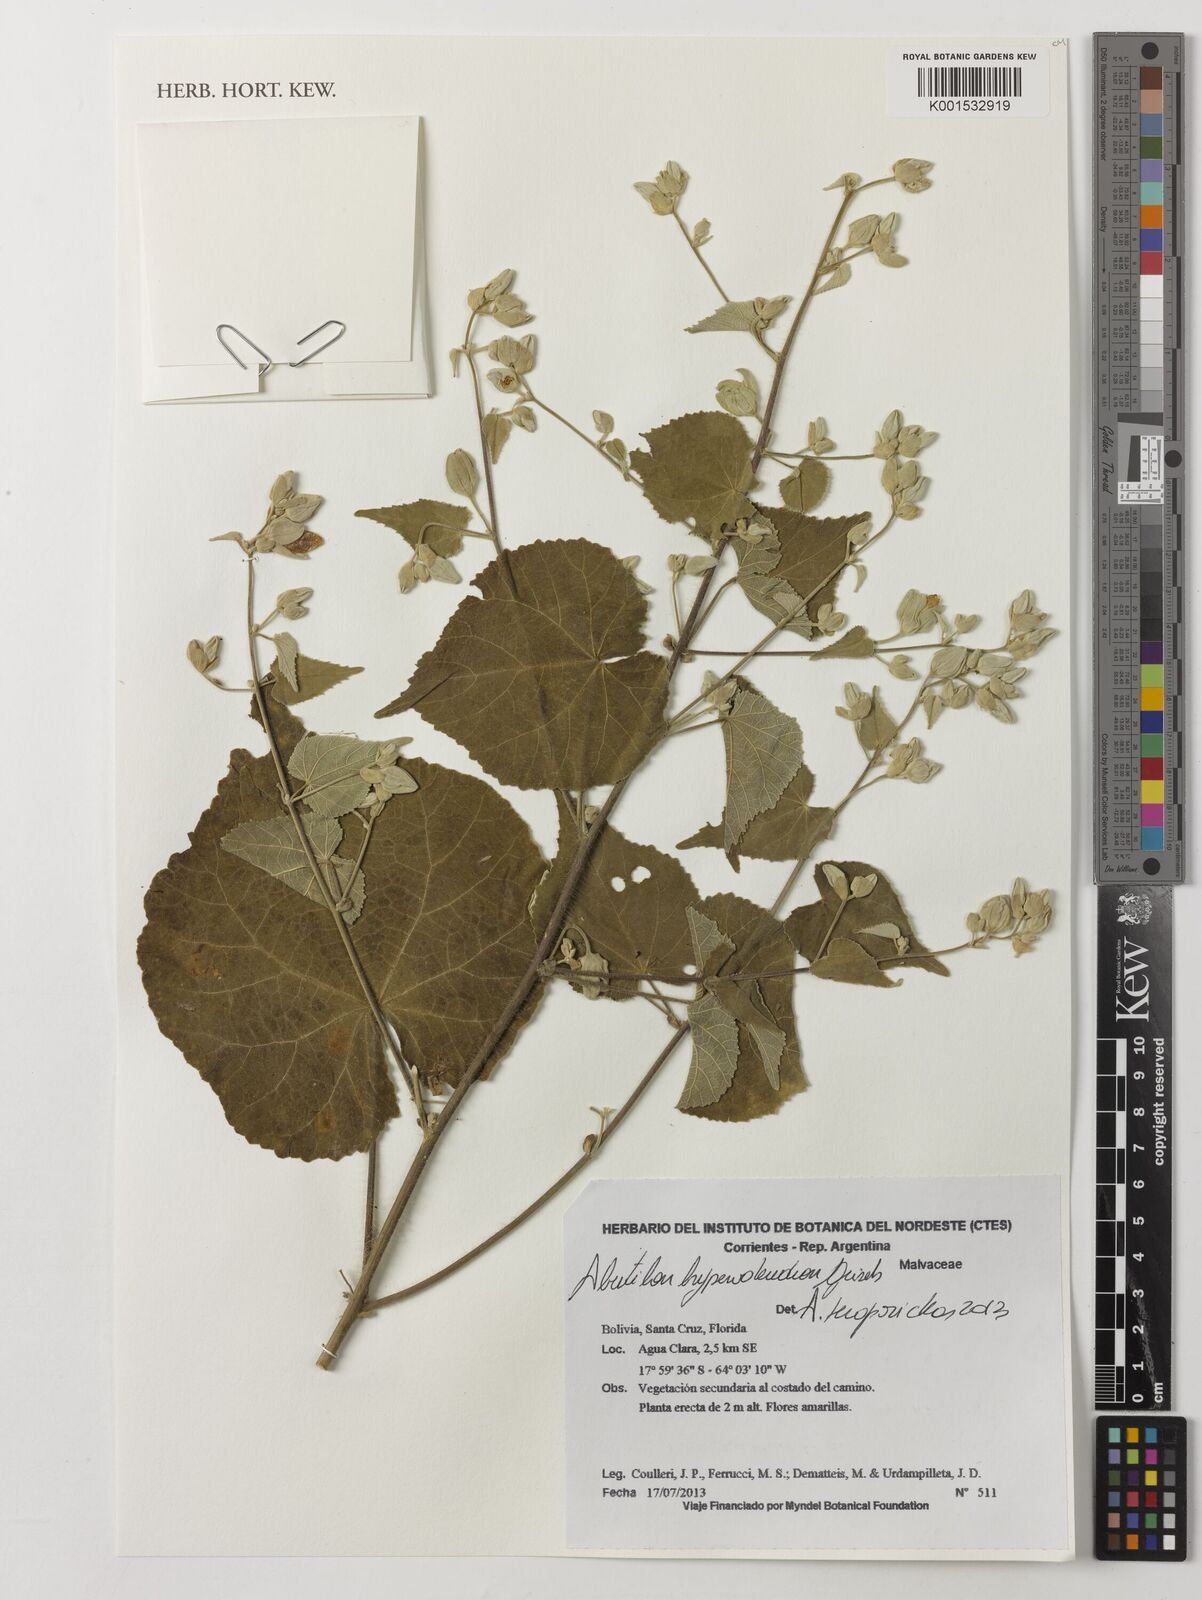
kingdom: Plantae
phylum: Tracheophyta
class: Magnoliopsida
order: Malvales
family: Malvaceae
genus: Abutilon
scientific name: Abutilon
